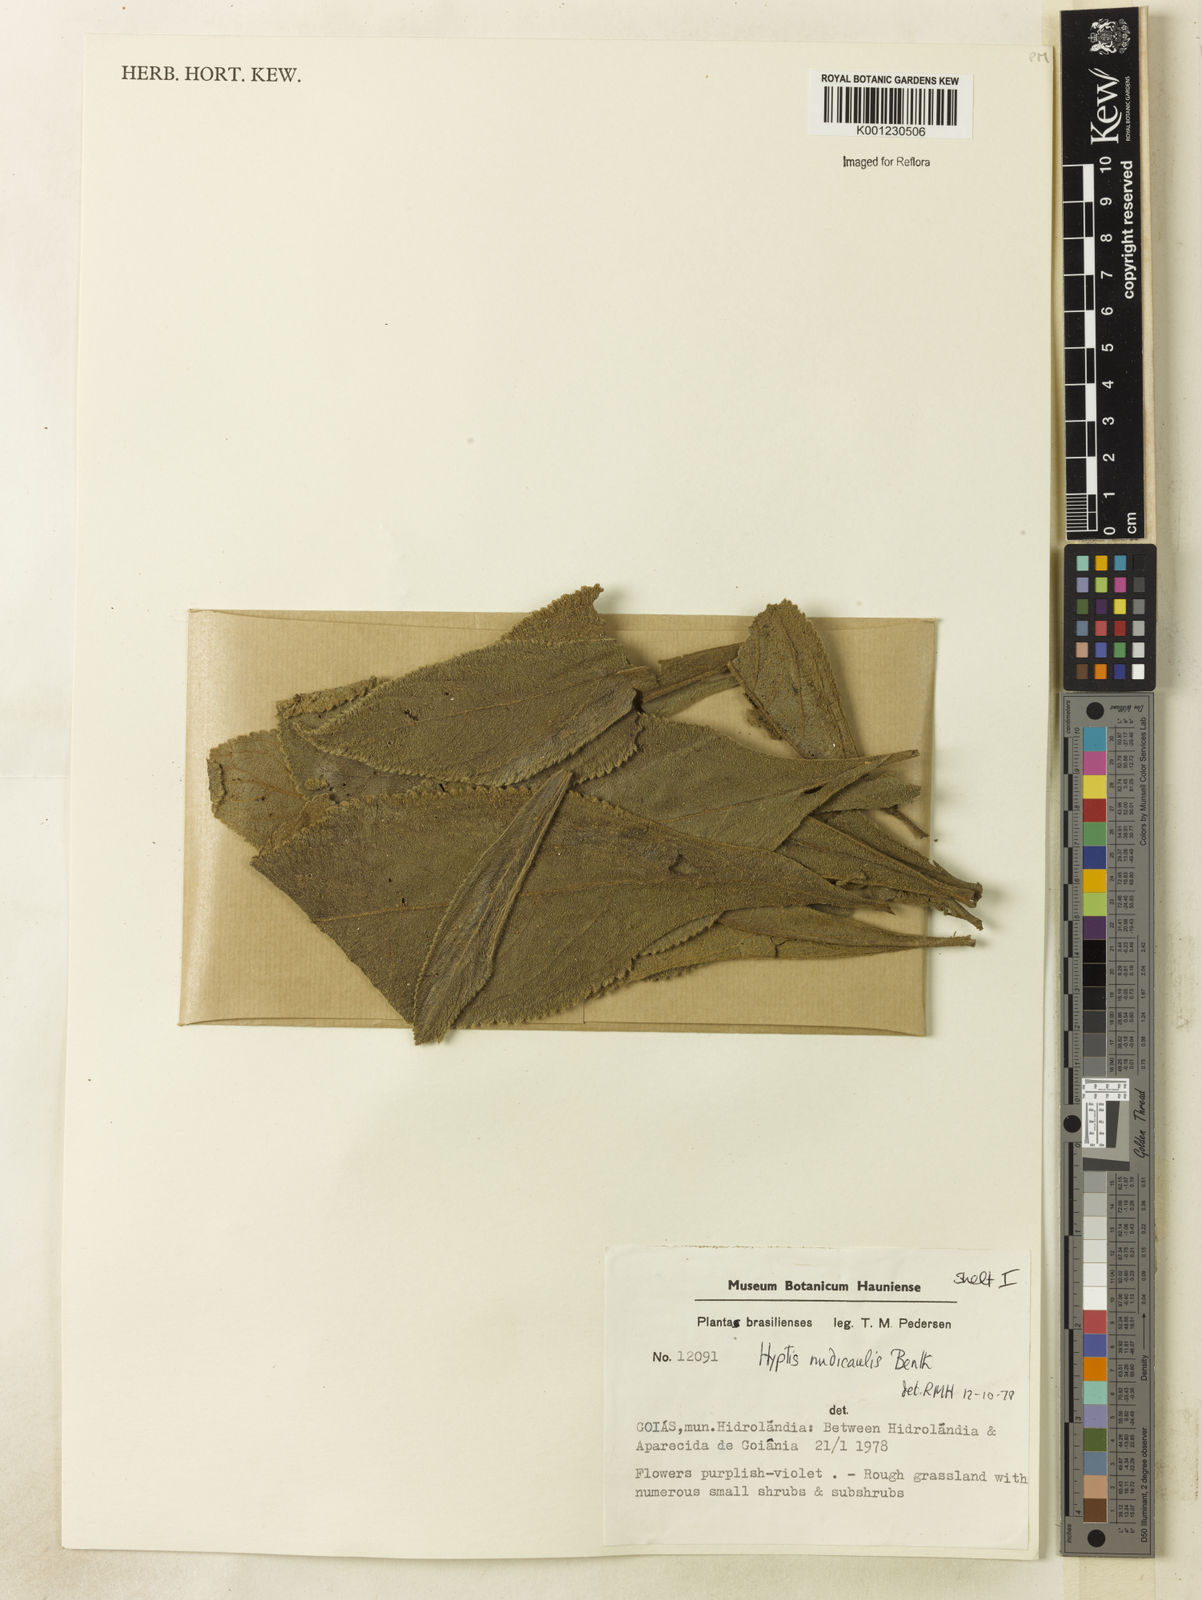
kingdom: Plantae
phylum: Tracheophyta
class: Magnoliopsida
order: Lamiales
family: Lamiaceae
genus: Hyptis
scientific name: Hyptis nudicaulis
